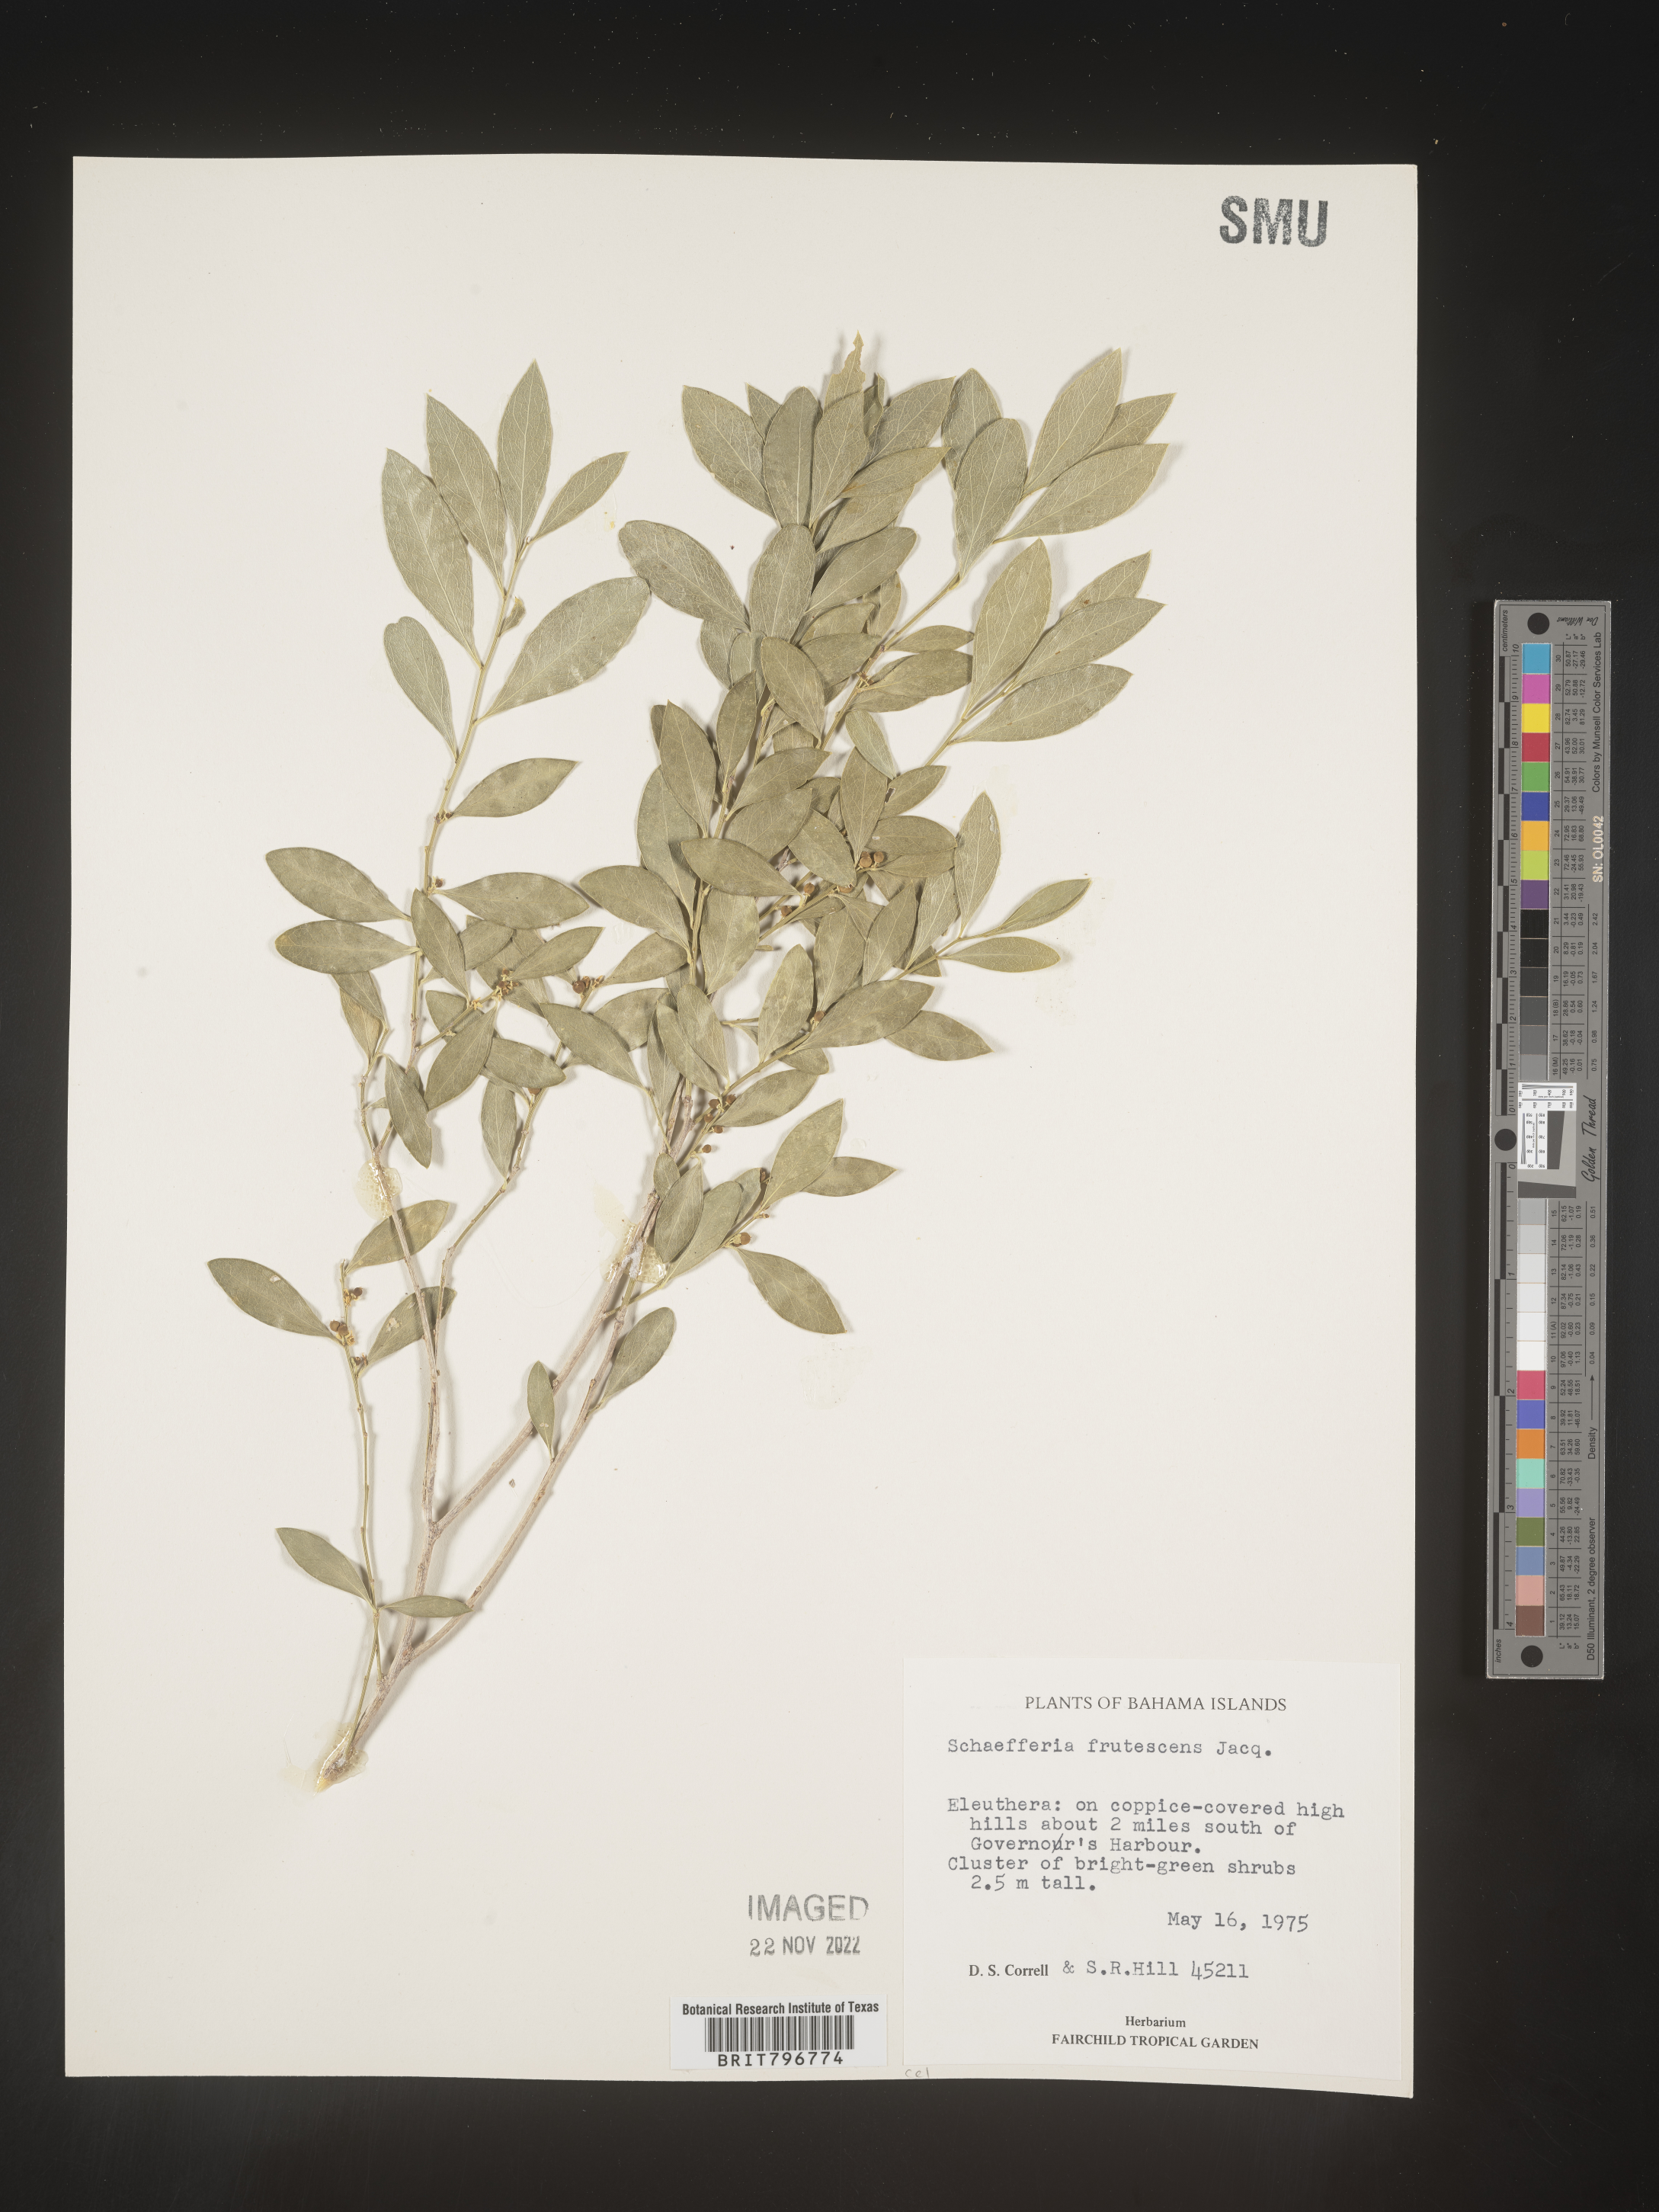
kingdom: Plantae
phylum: Tracheophyta
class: Magnoliopsida
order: Celastrales
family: Celastraceae
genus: Schaefferia
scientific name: Schaefferia
